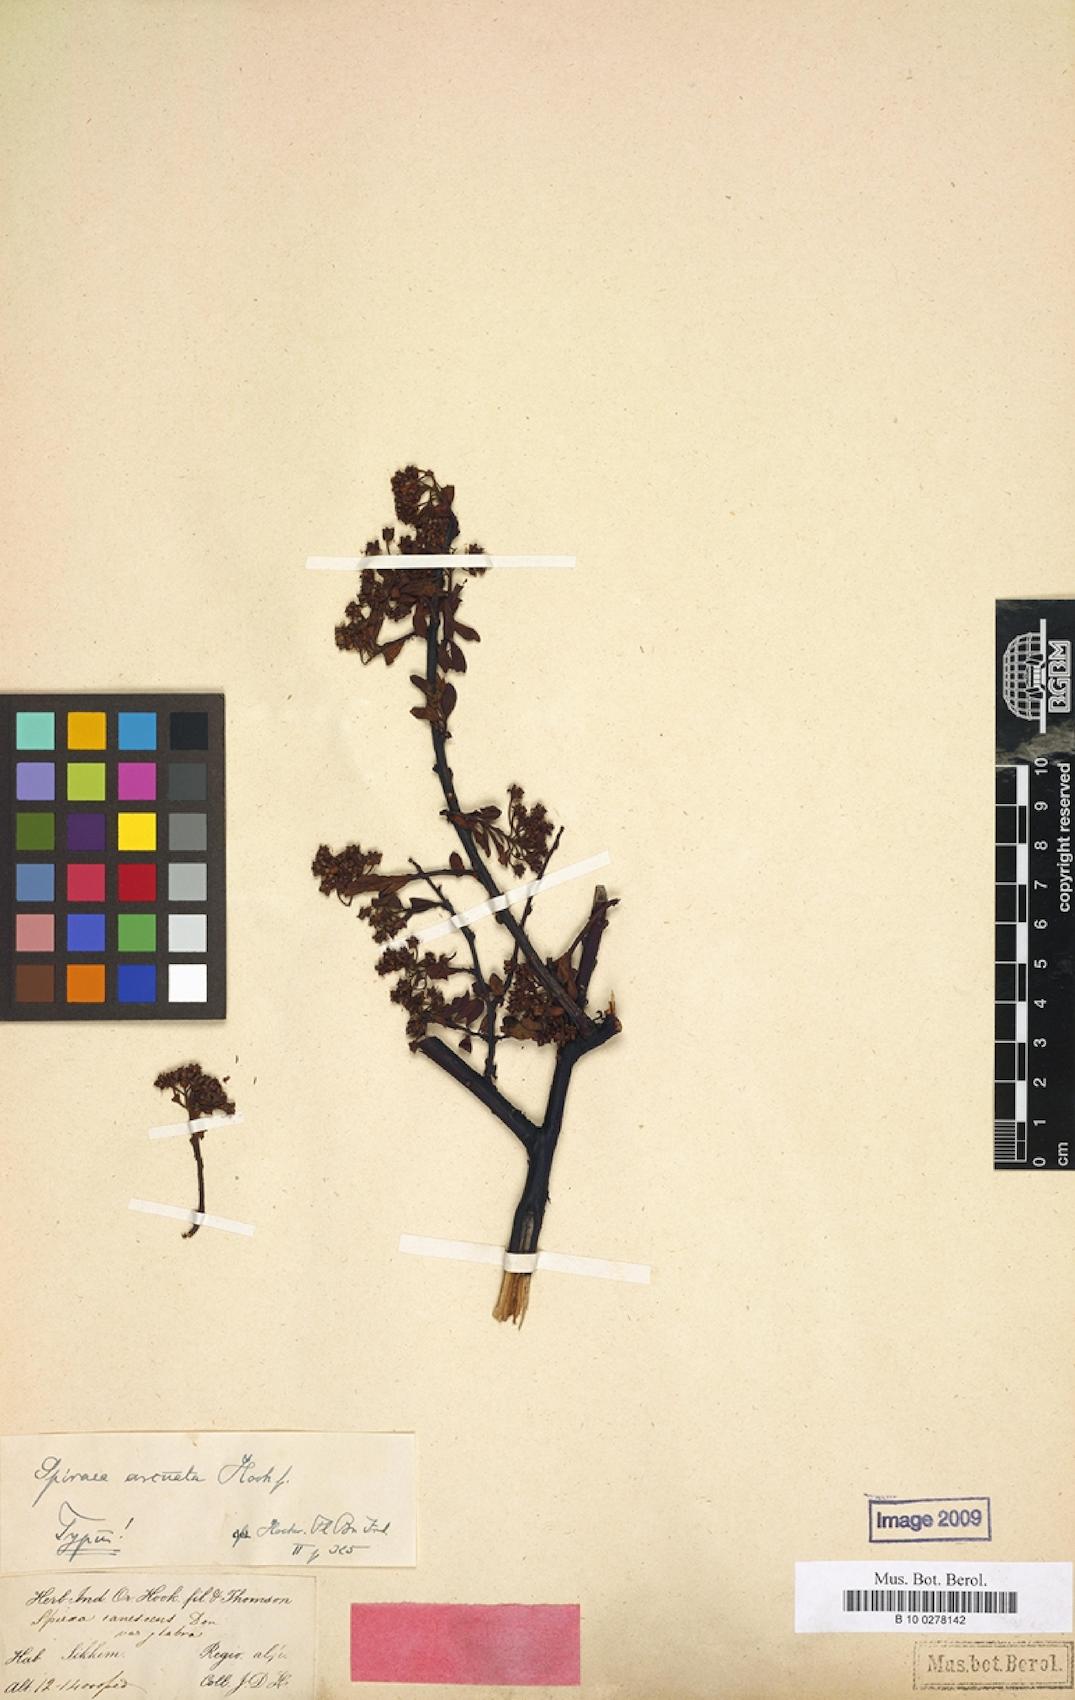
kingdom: Plantae
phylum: Tracheophyta
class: Magnoliopsida
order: Rosales
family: Rosaceae
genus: Spiraea
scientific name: Spiraea arcuata
